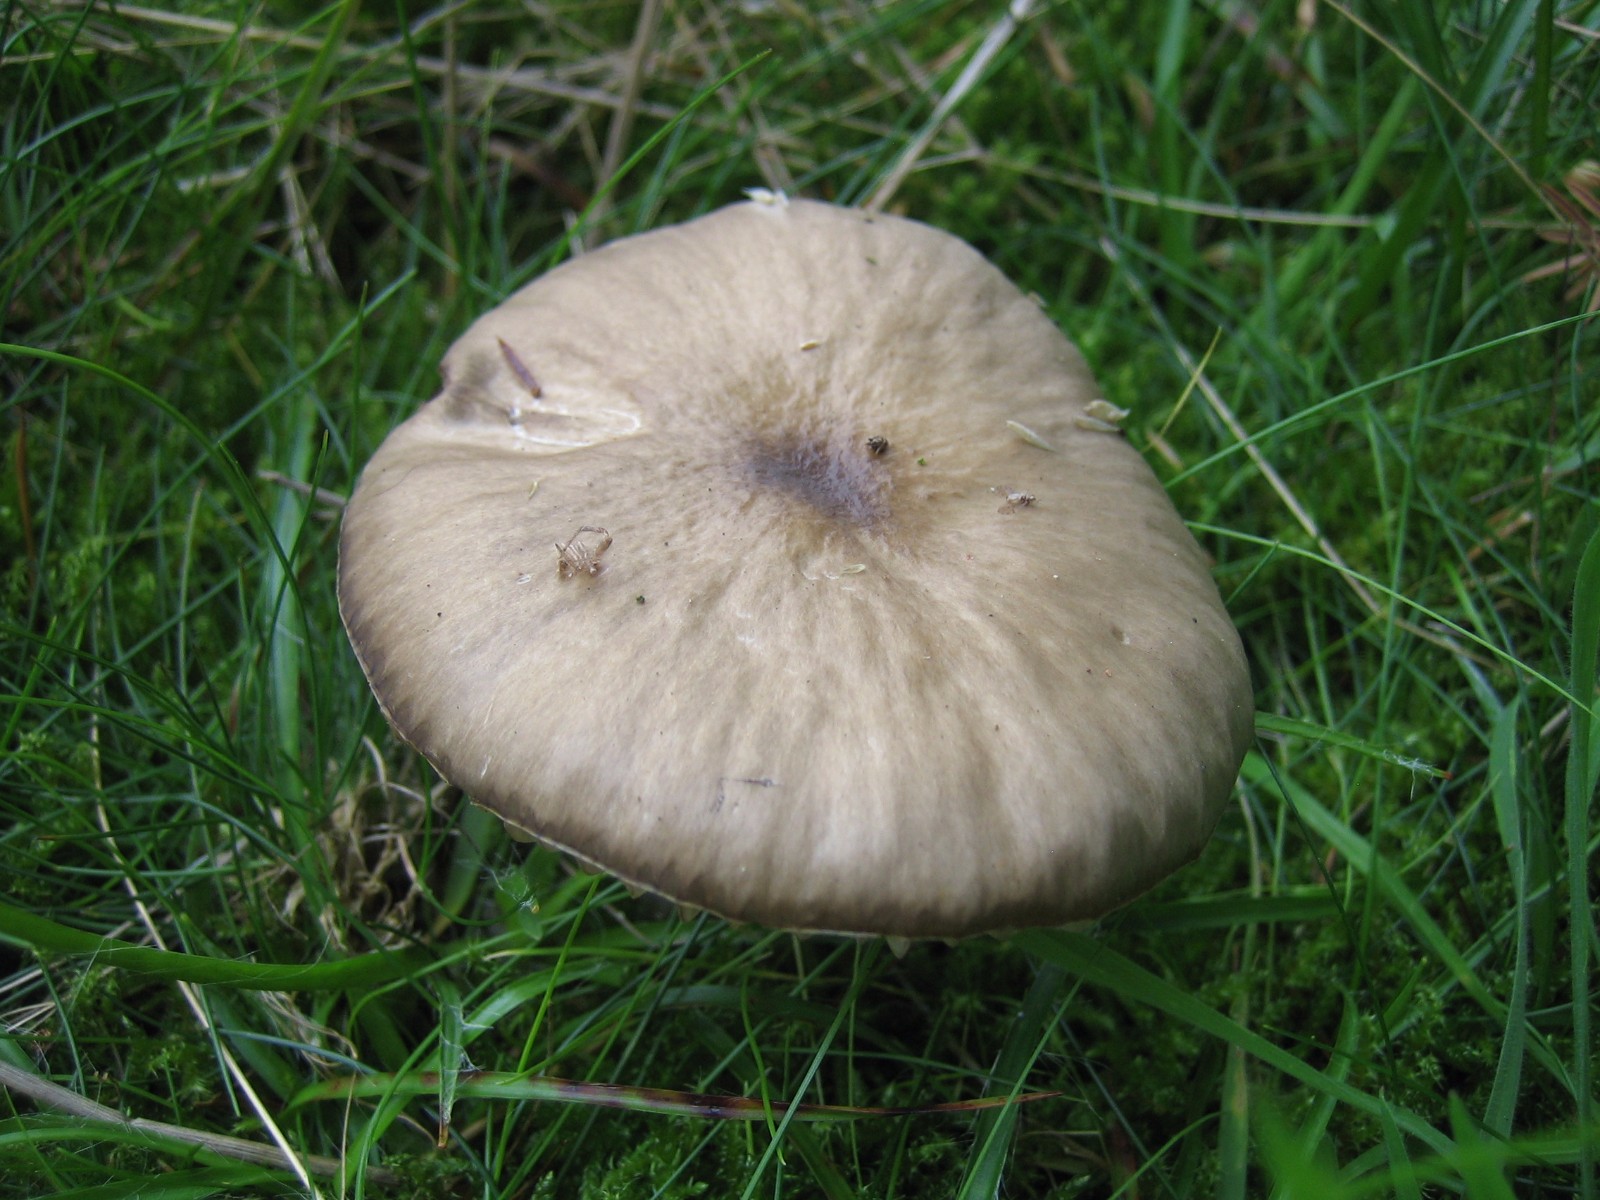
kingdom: Fungi
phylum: Basidiomycota
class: Agaricomycetes
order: Agaricales
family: Hygrophoraceae
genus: Gliophorus
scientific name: Gliophorus irrigatus
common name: slimet vokshat
